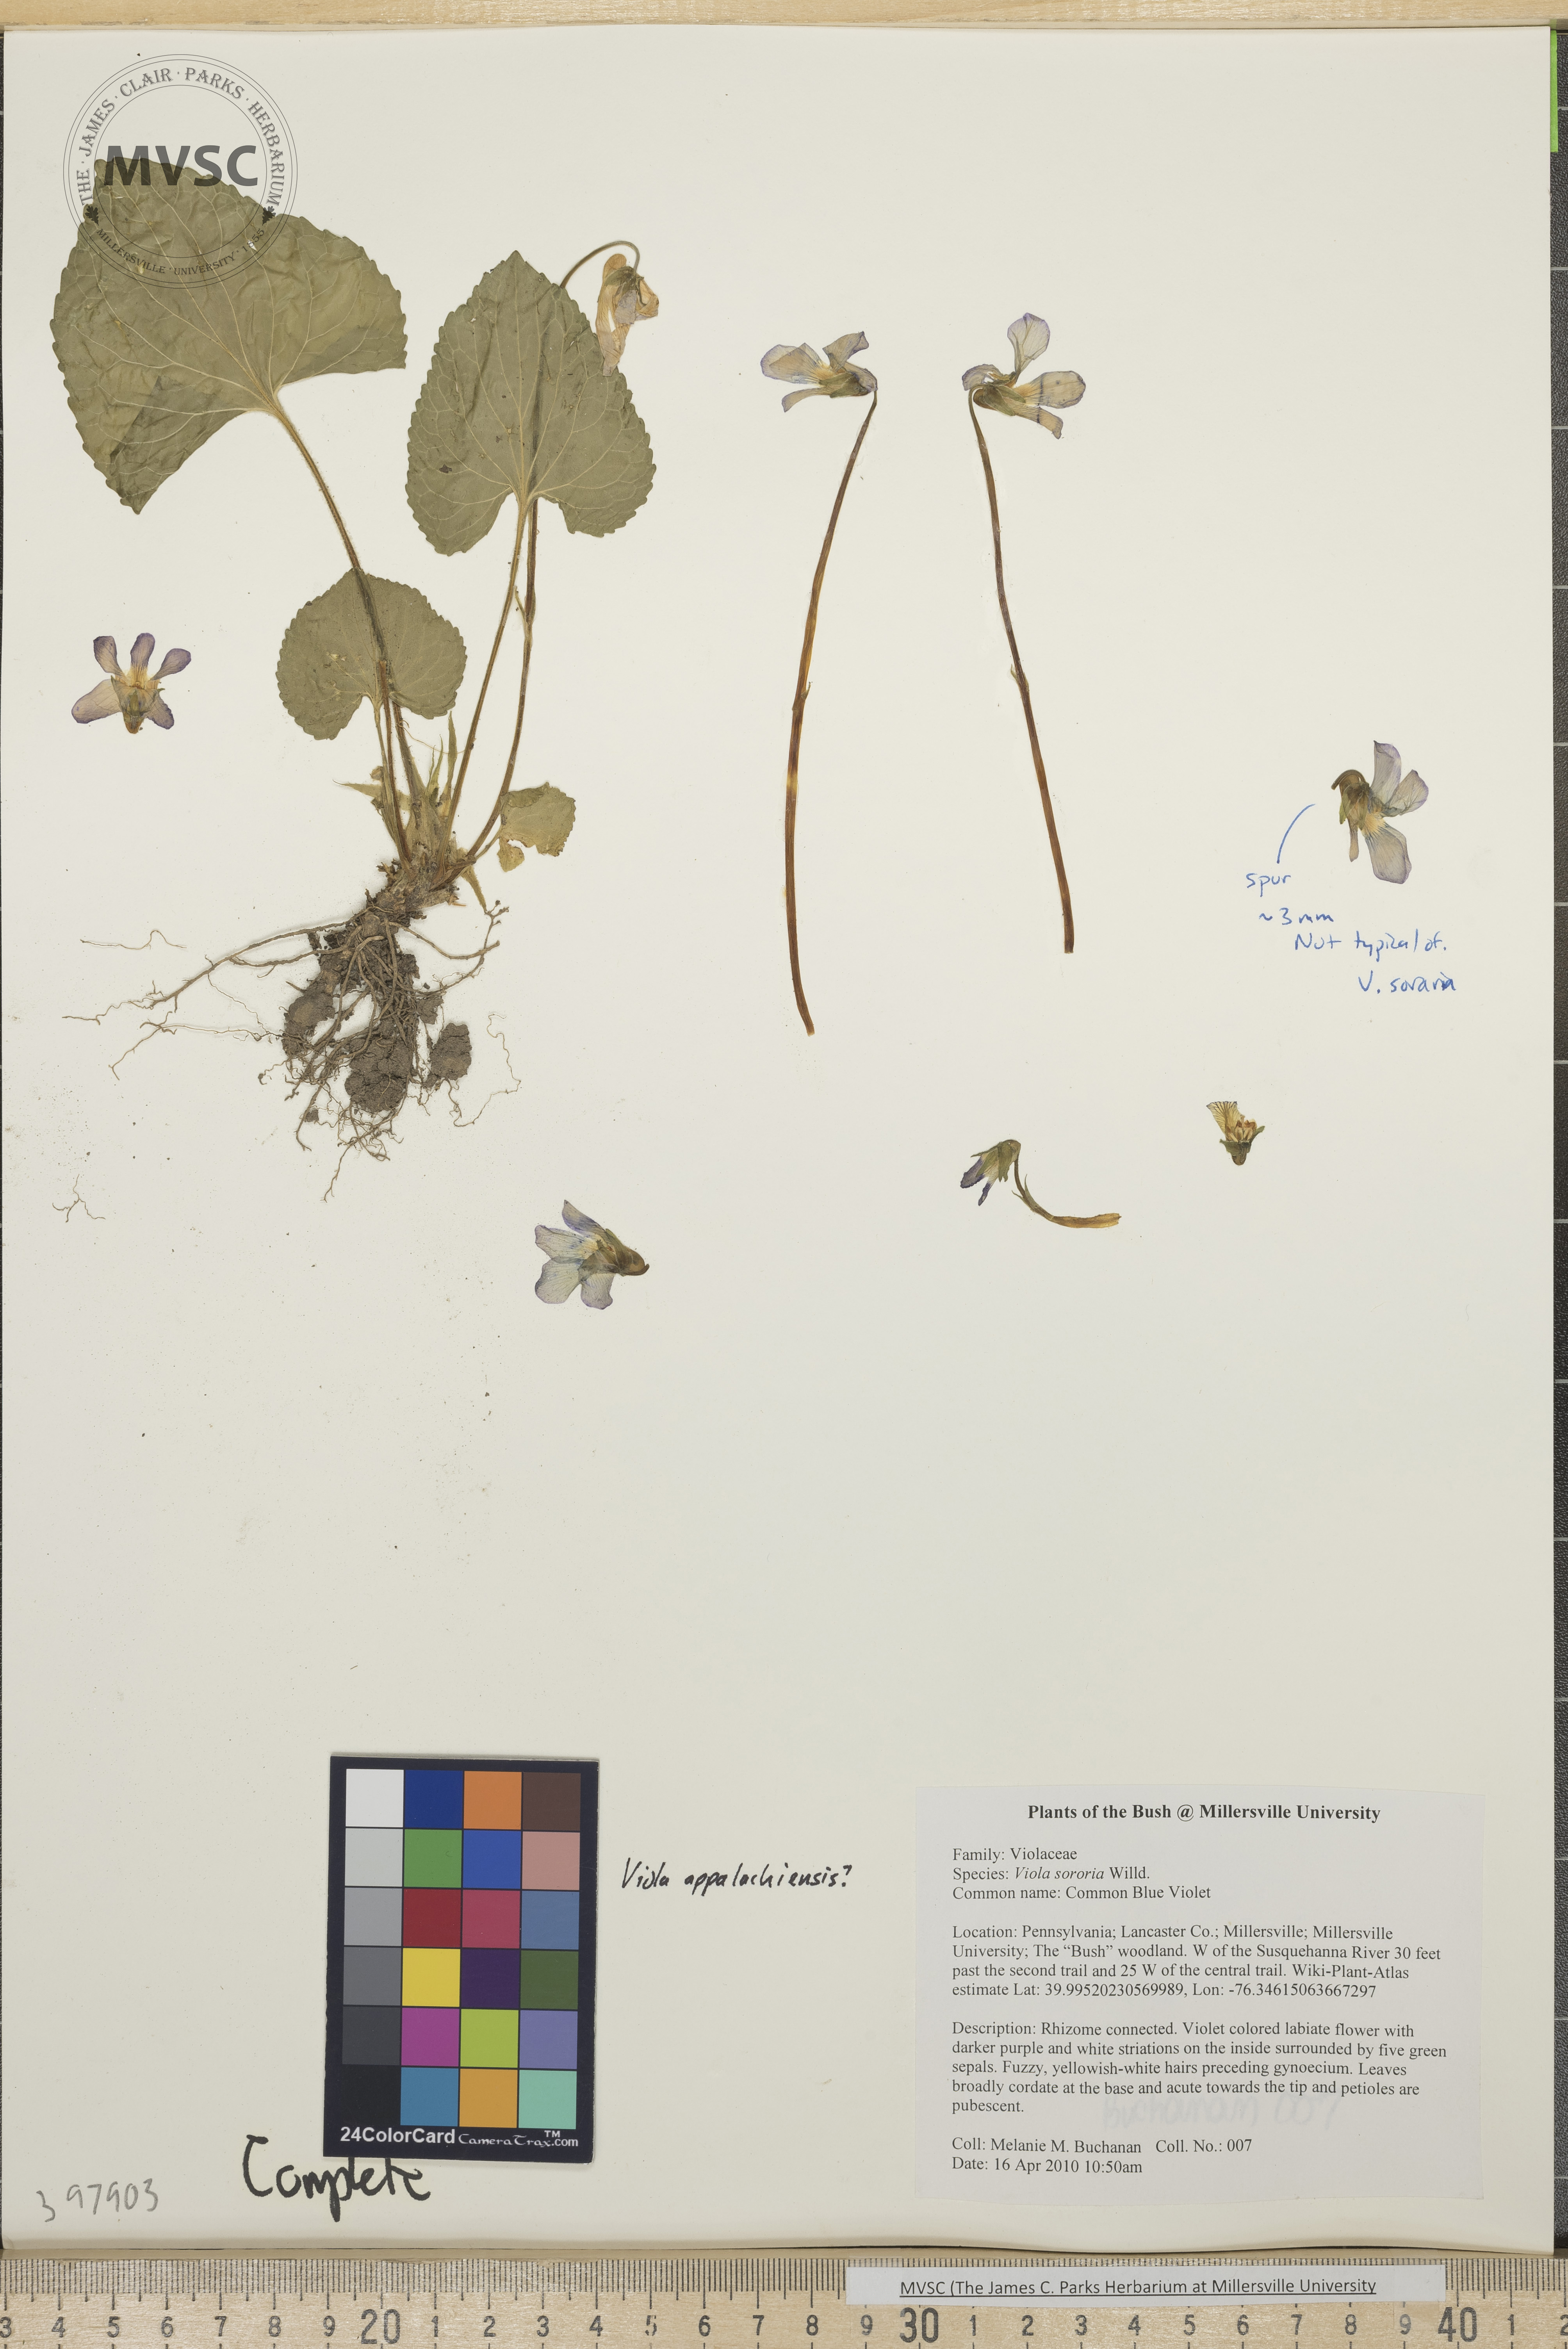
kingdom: Plantae
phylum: Tracheophyta
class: Magnoliopsida
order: Malpighiales
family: Violaceae
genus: Viola
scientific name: Viola sororia
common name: Common blue violet
